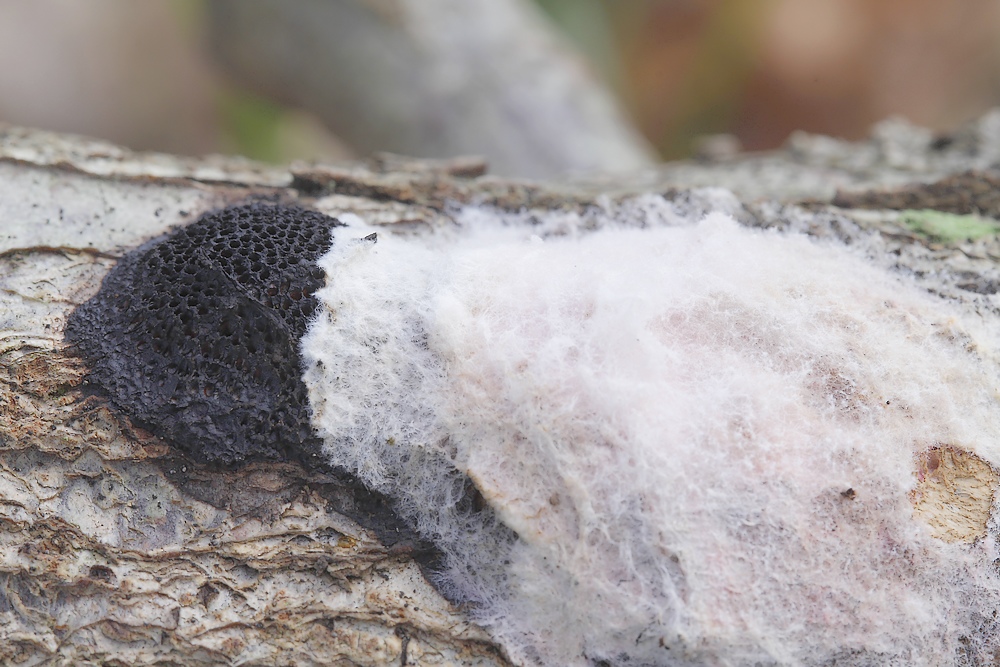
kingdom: Fungi
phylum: Ascomycota
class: Sordariomycetes
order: Hypocreales
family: Hypocreaceae
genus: Hypomyces
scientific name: Hypomyces rosellus
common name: rosa snylteskorpe
